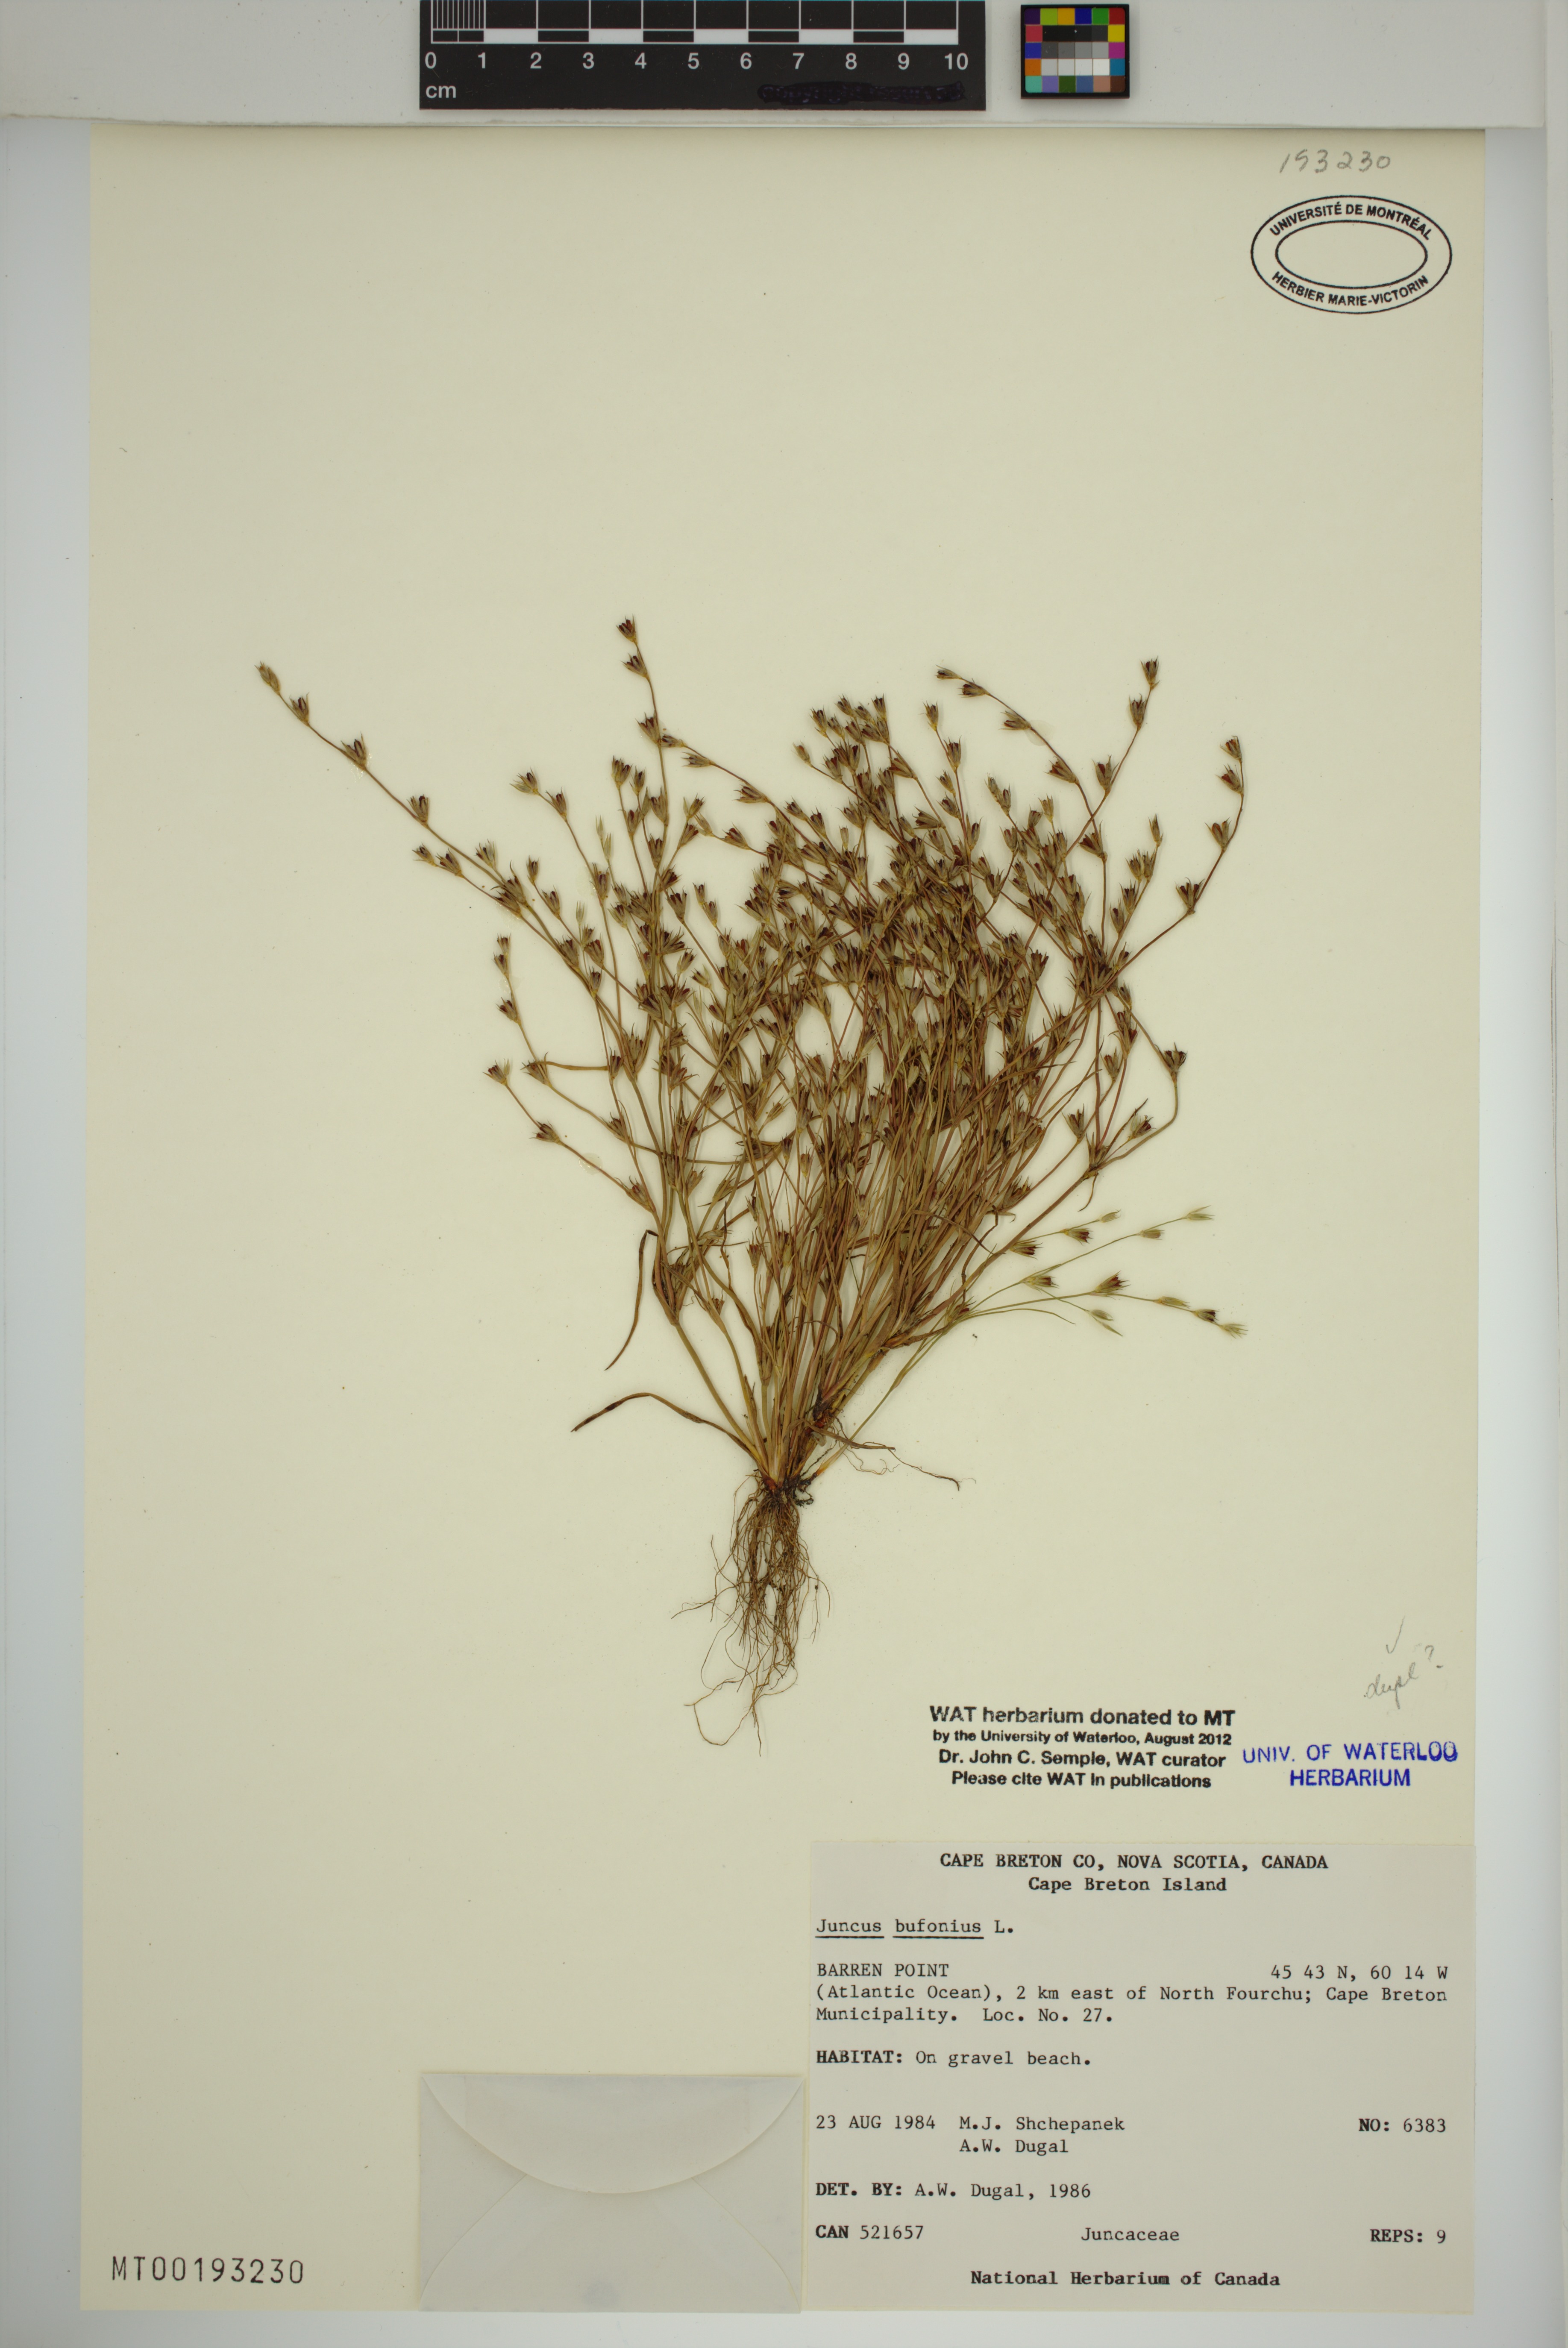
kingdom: Plantae
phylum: Tracheophyta
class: Liliopsida
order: Poales
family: Juncaceae
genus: Juncus
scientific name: Juncus bufonius
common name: Toad rush
